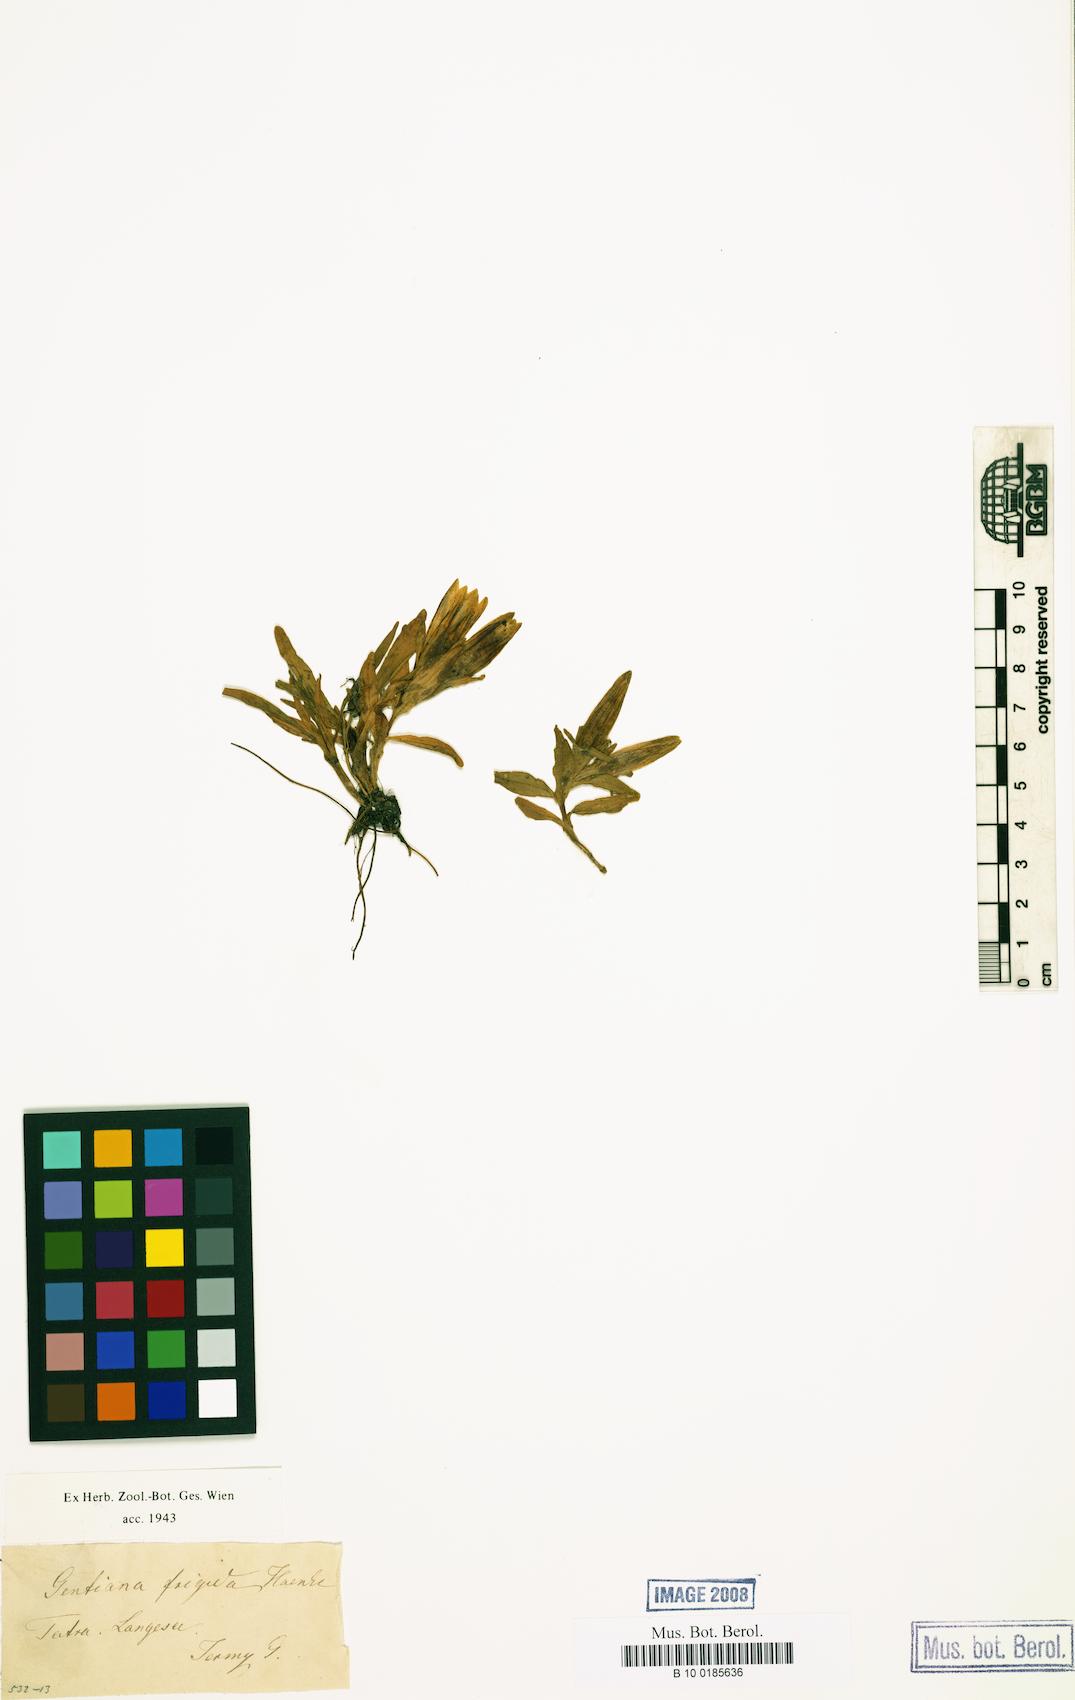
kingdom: Plantae
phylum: Tracheophyta
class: Magnoliopsida
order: Gentianales
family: Gentianaceae
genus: Gentiana
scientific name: Gentiana frigida
